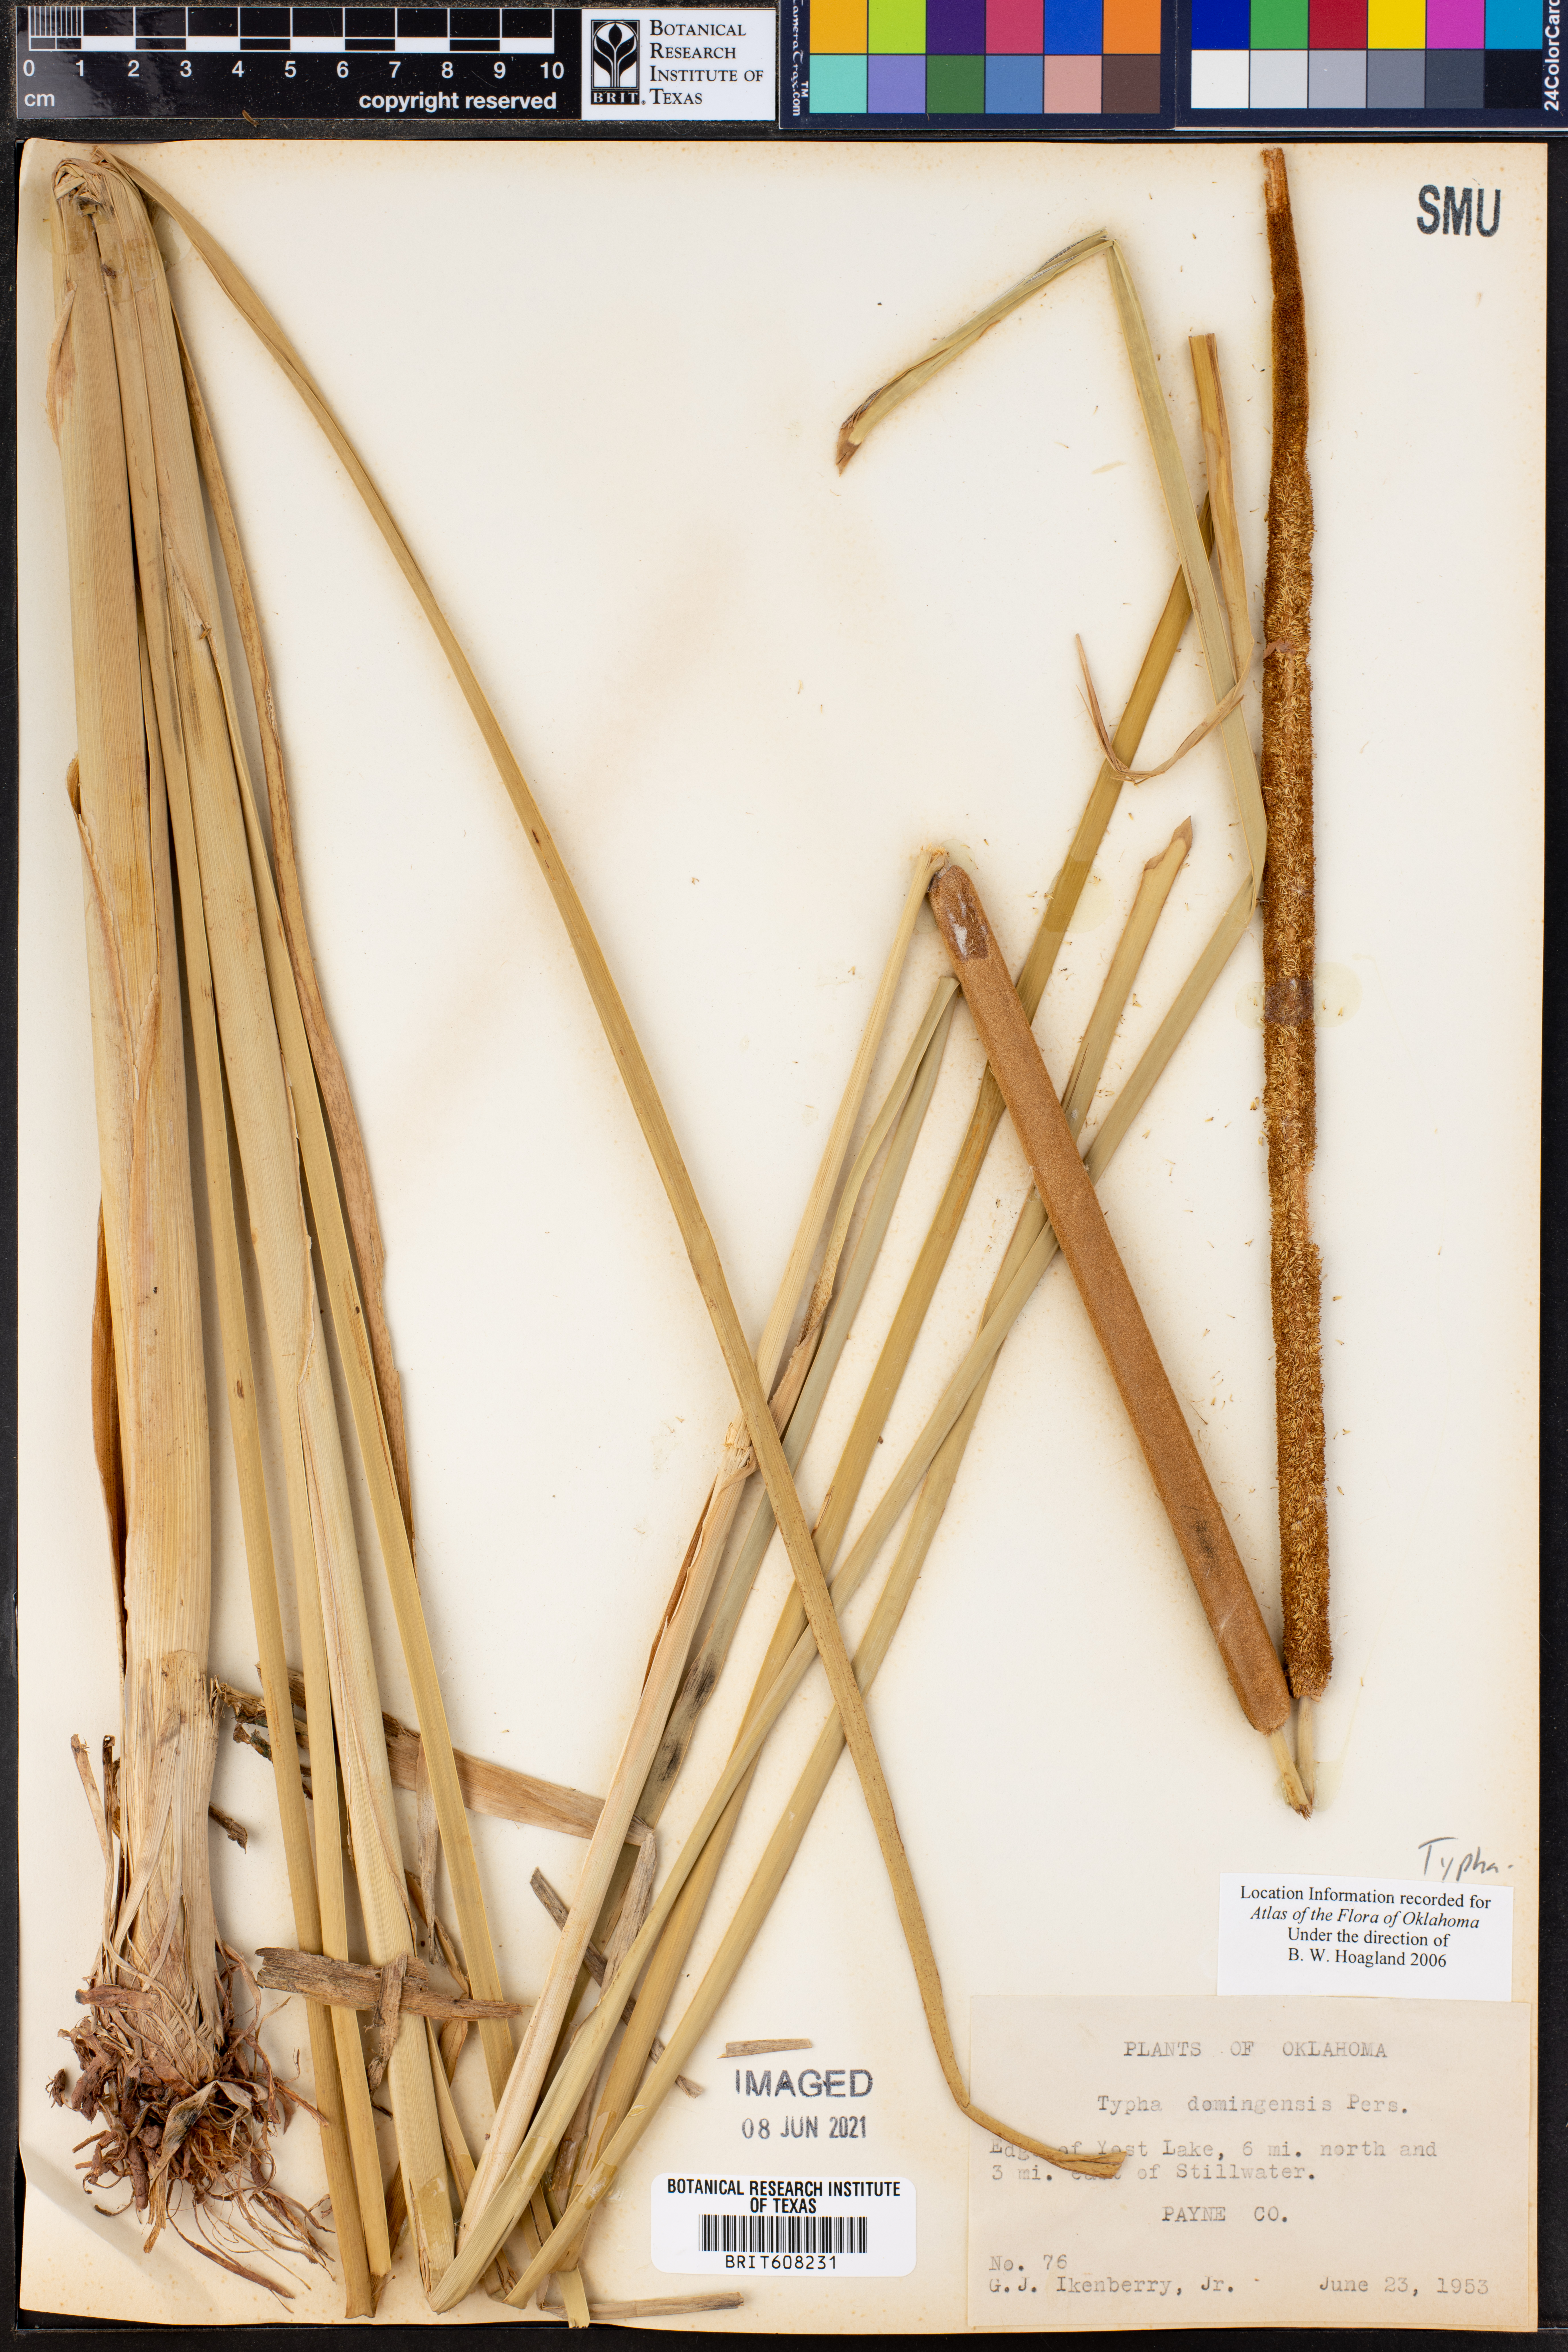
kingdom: Plantae
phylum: Tracheophyta
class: Liliopsida
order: Poales
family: Typhaceae
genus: Typha
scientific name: Typha domingensis
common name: Southern cattail
